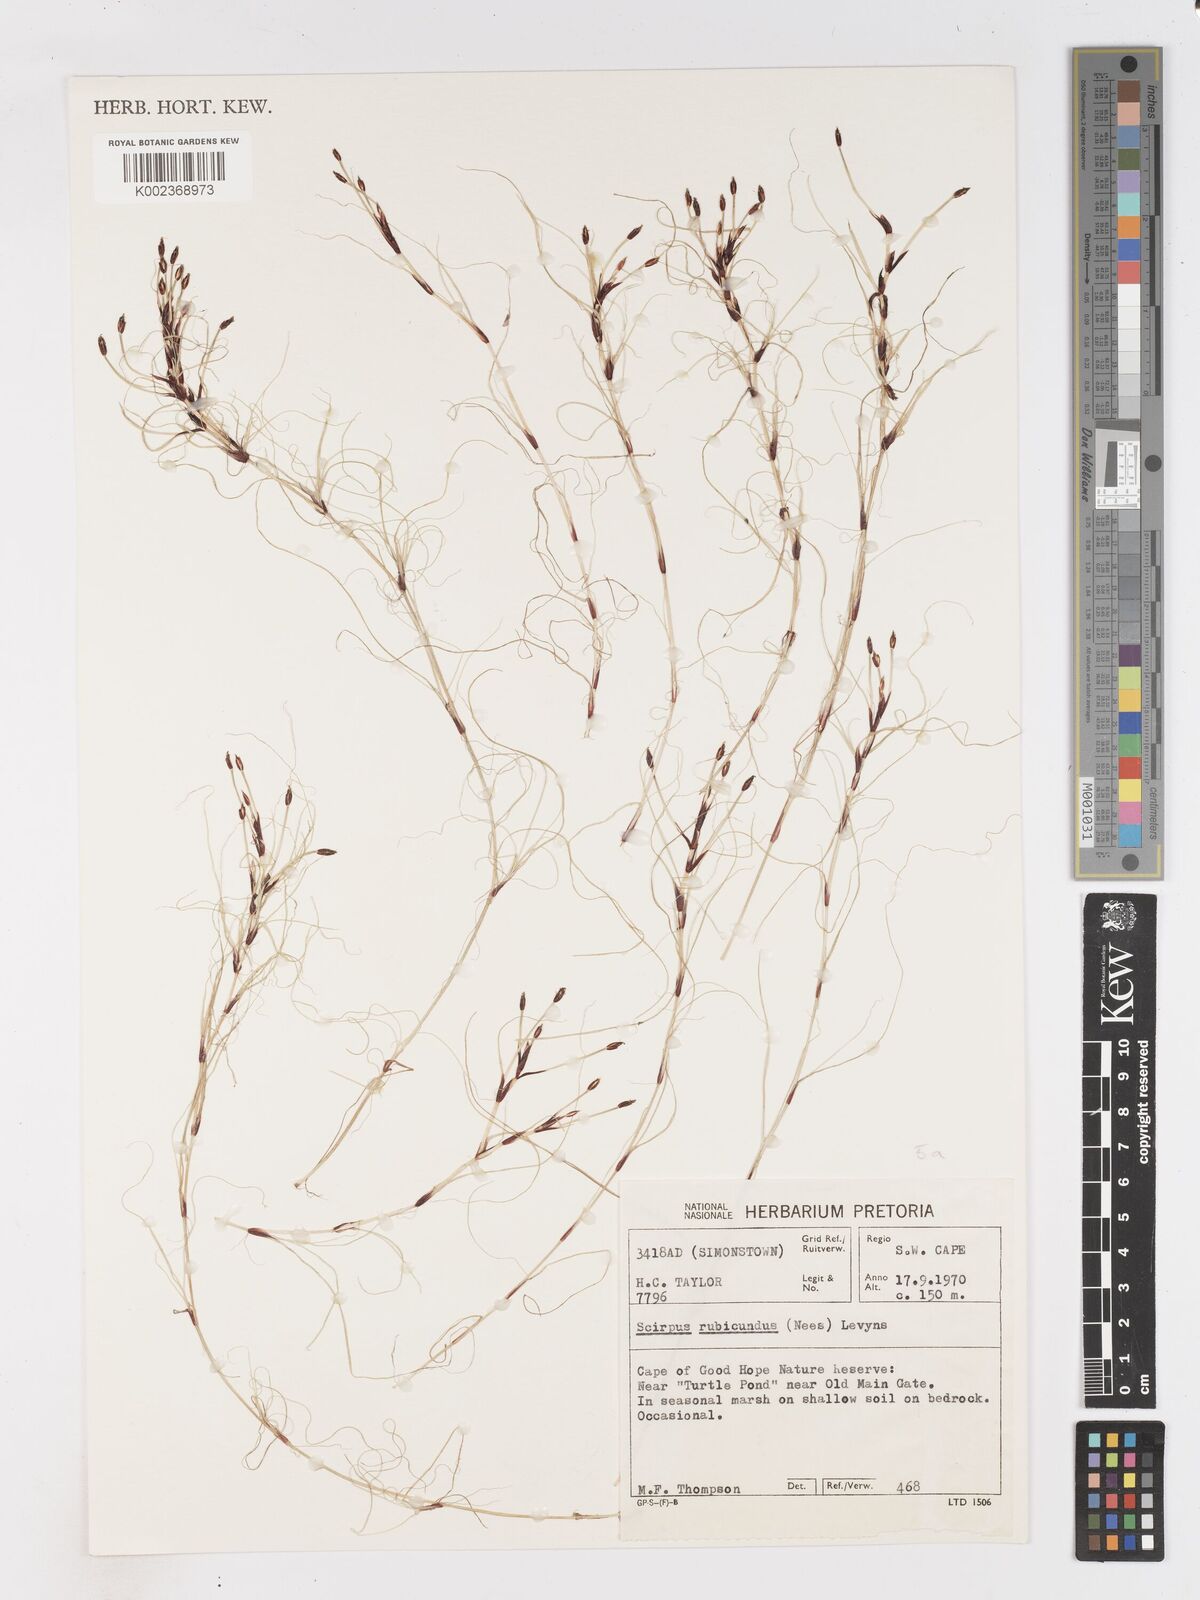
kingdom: Plantae
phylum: Tracheophyta
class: Liliopsida
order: Poales
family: Cyperaceae
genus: Isolepis
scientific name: Isolepis striata
